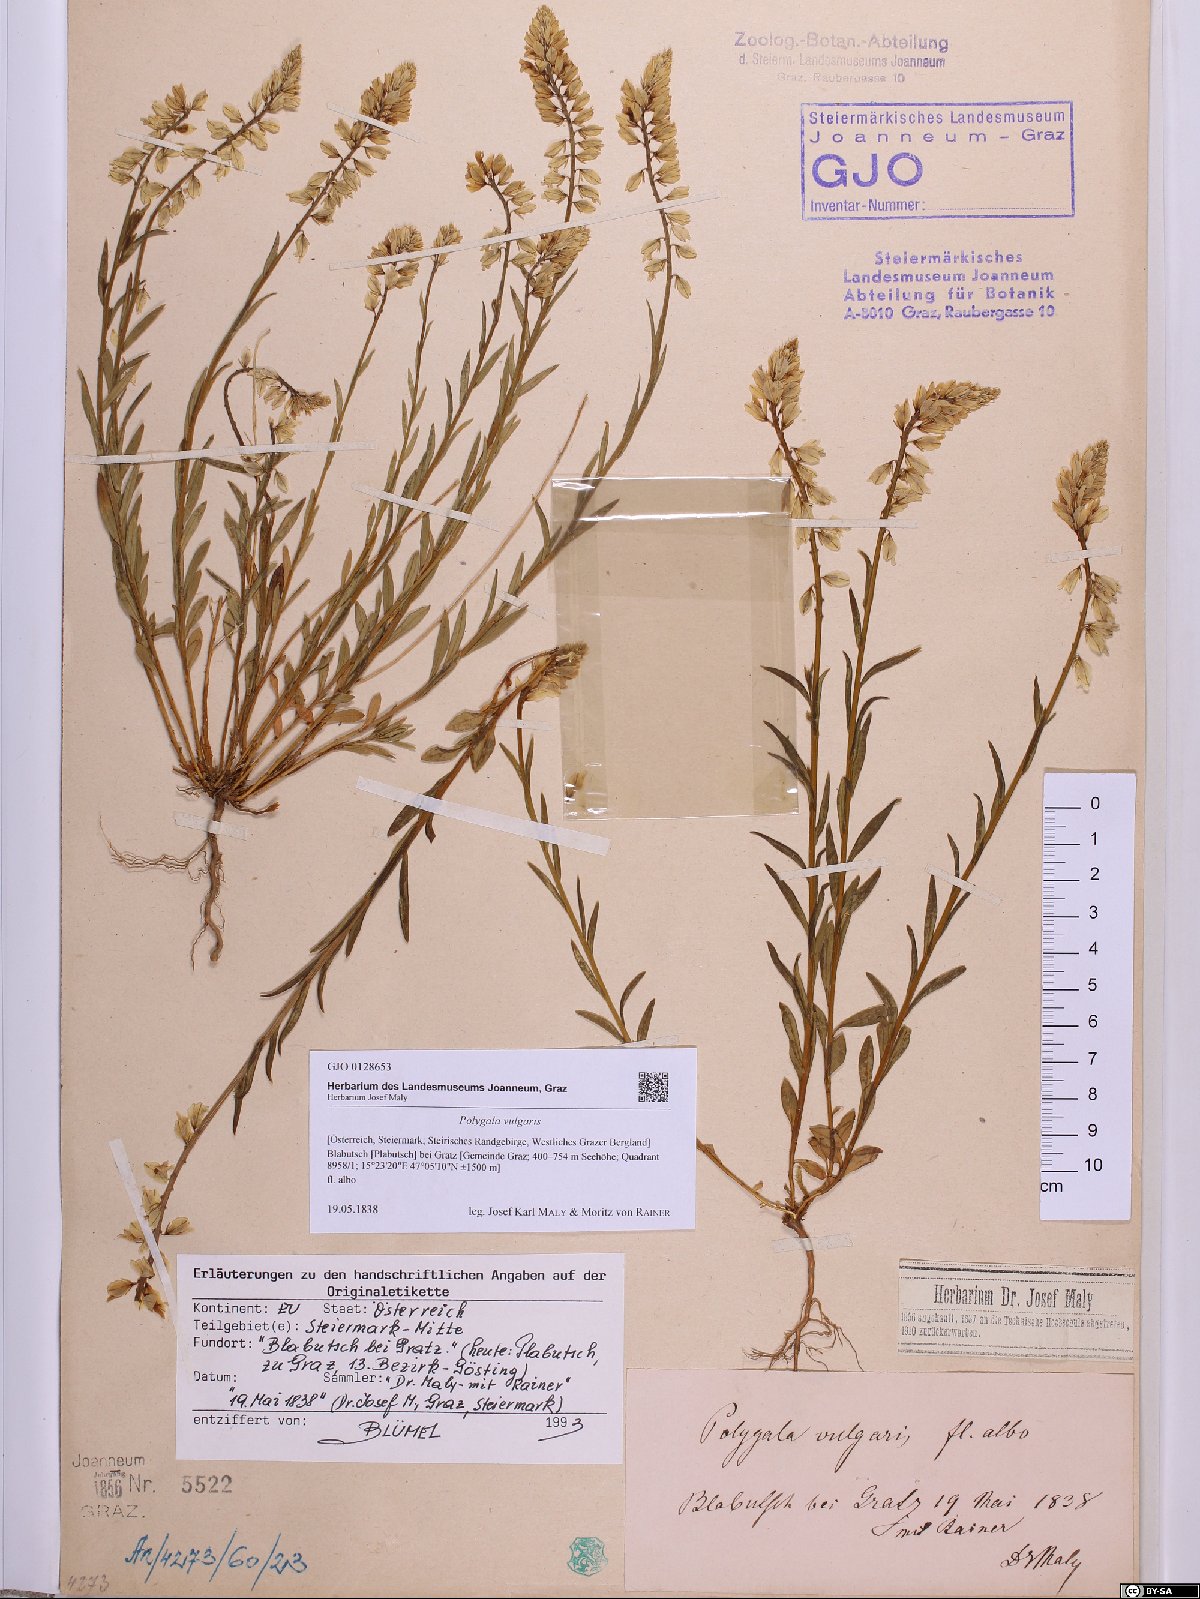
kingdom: Plantae
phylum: Tracheophyta
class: Magnoliopsida
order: Fabales
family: Polygalaceae
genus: Polygala
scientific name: Polygala vulgaris
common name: Common milkwort
